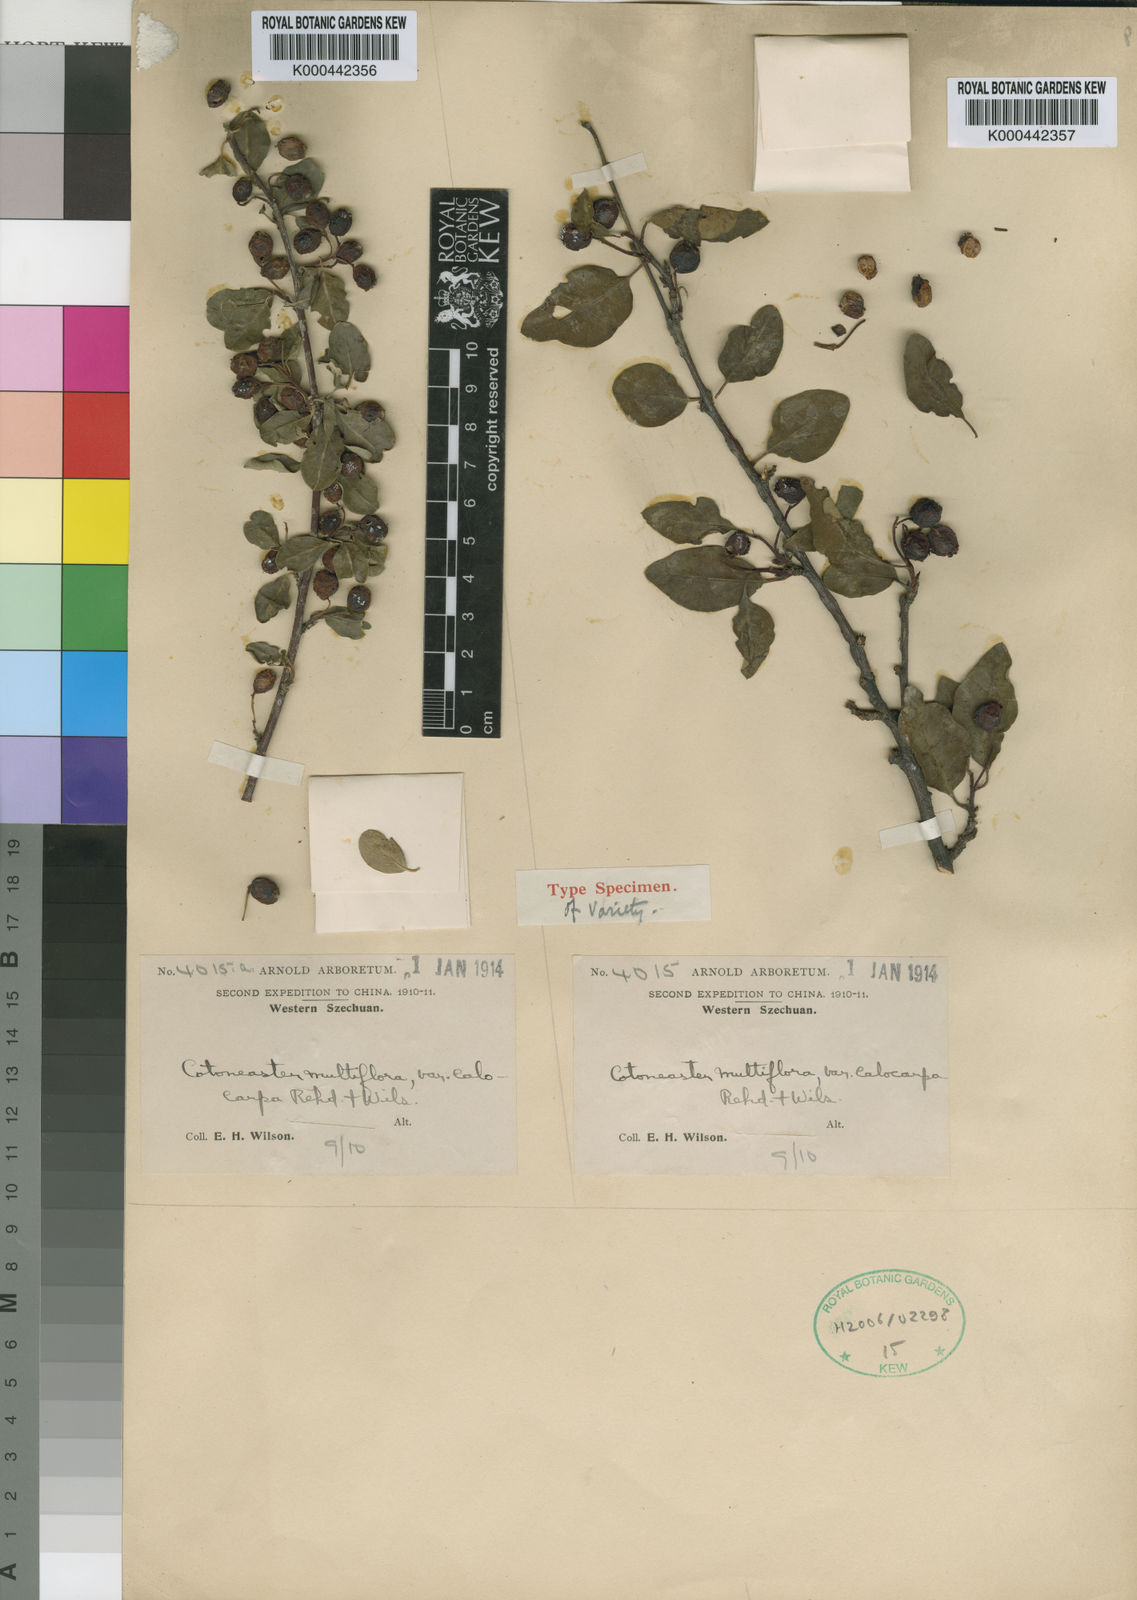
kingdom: Plantae
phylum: Tracheophyta
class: Magnoliopsida
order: Rosales
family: Rosaceae
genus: Cotoneaster
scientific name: Cotoneaster multiflorus
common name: Cotoneaster
